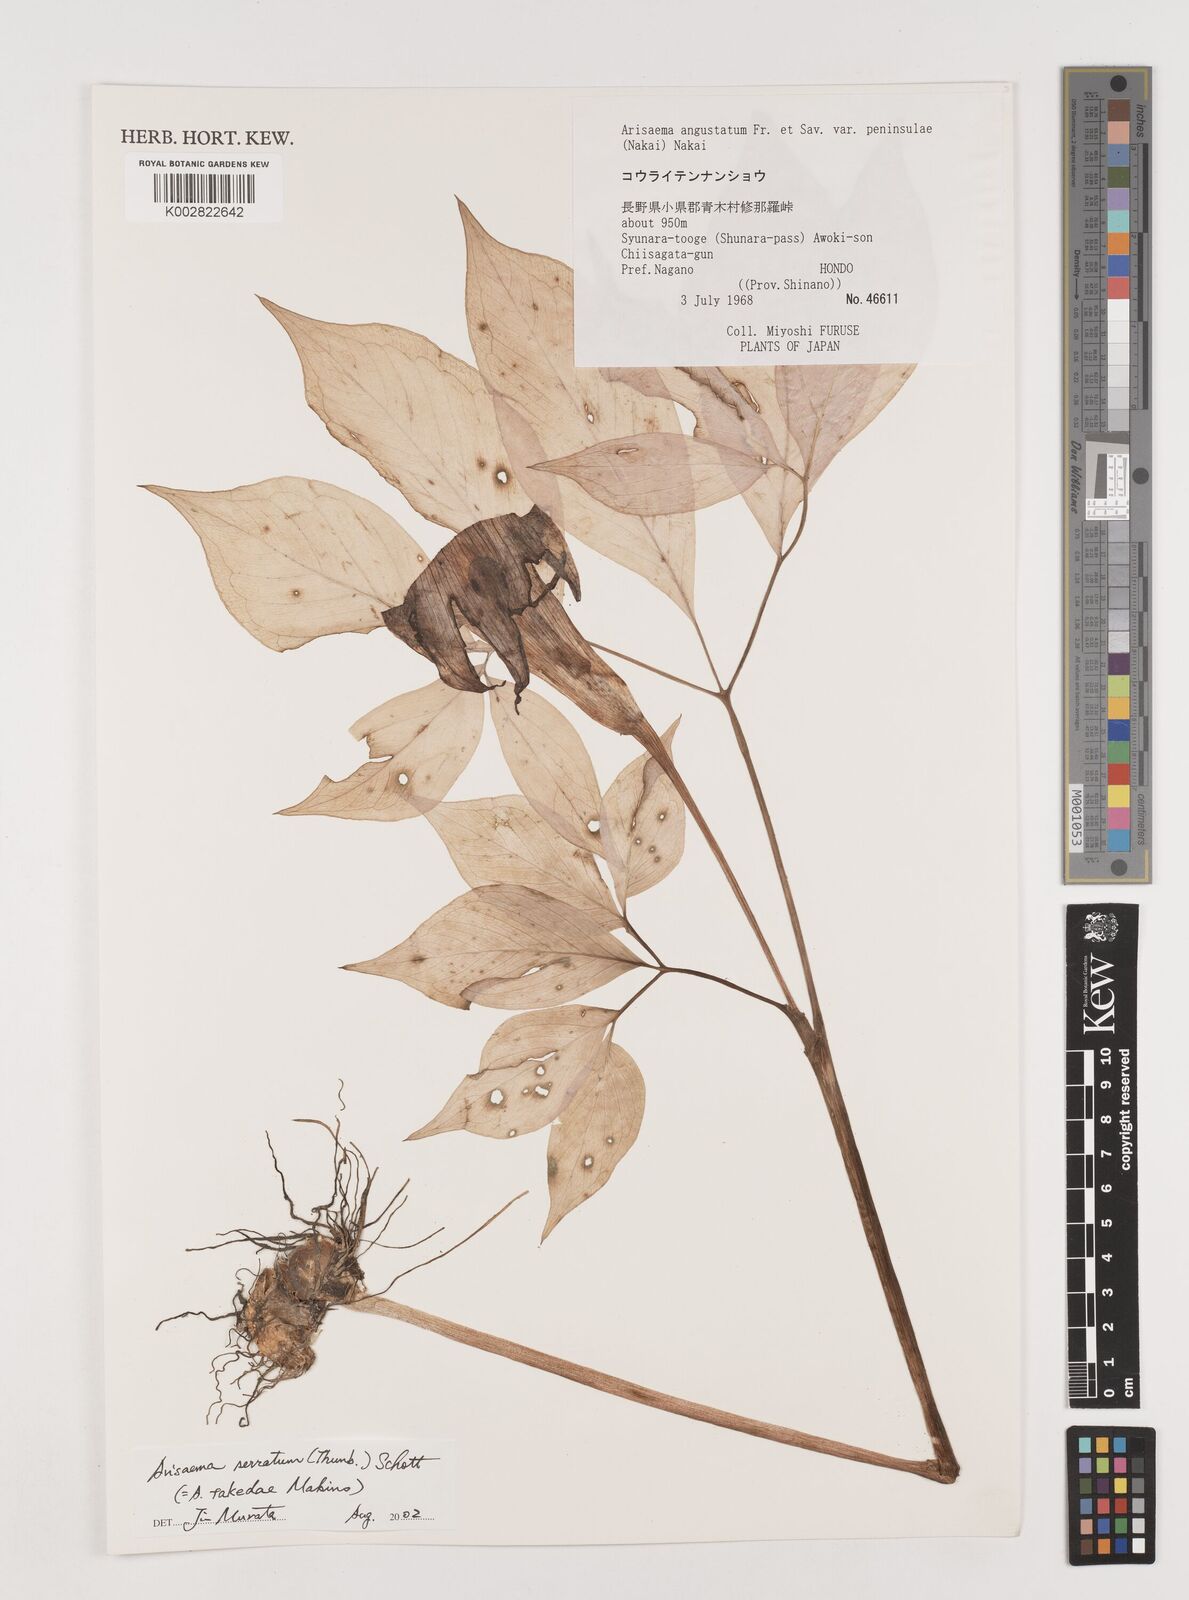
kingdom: Plantae
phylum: Tracheophyta
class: Liliopsida
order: Alismatales
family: Araceae
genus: Arisaema
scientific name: Arisaema serratum
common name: Japanese arisaema
